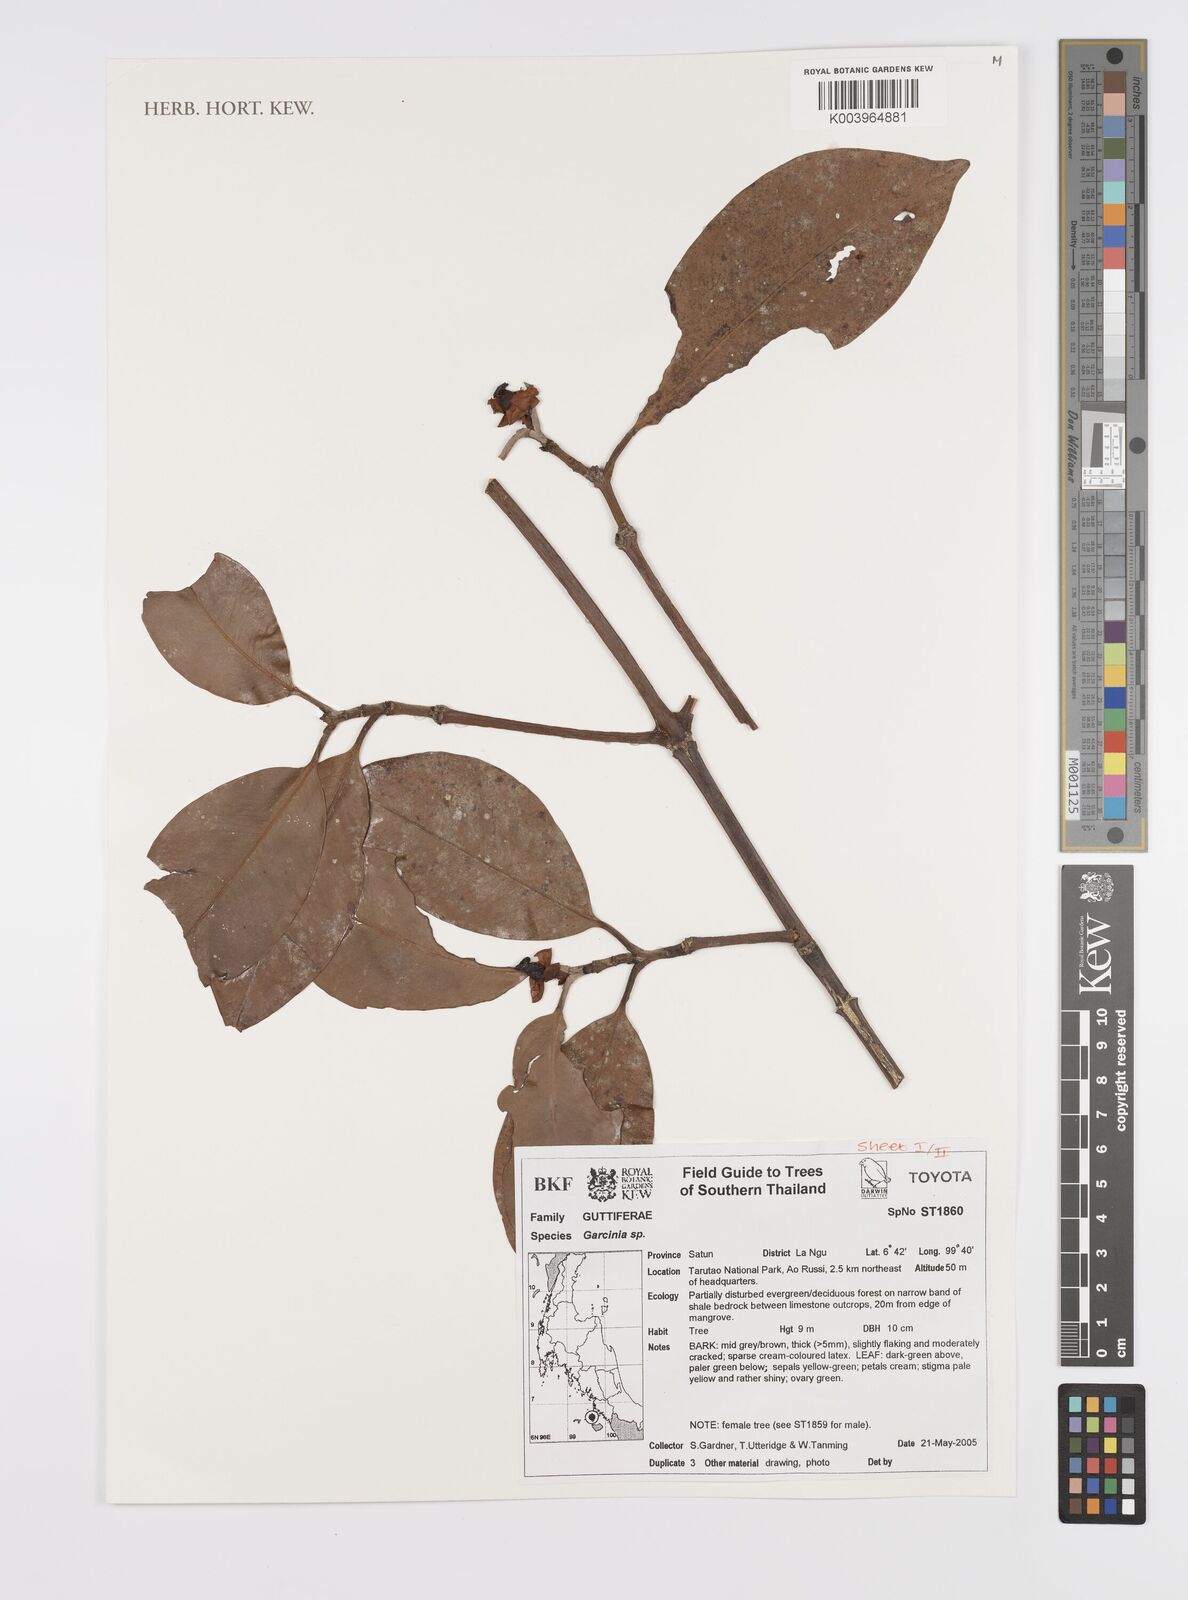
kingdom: Plantae
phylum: Tracheophyta
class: Magnoliopsida
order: Malpighiales
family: Clusiaceae
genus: Garcinia
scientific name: Garcinia
